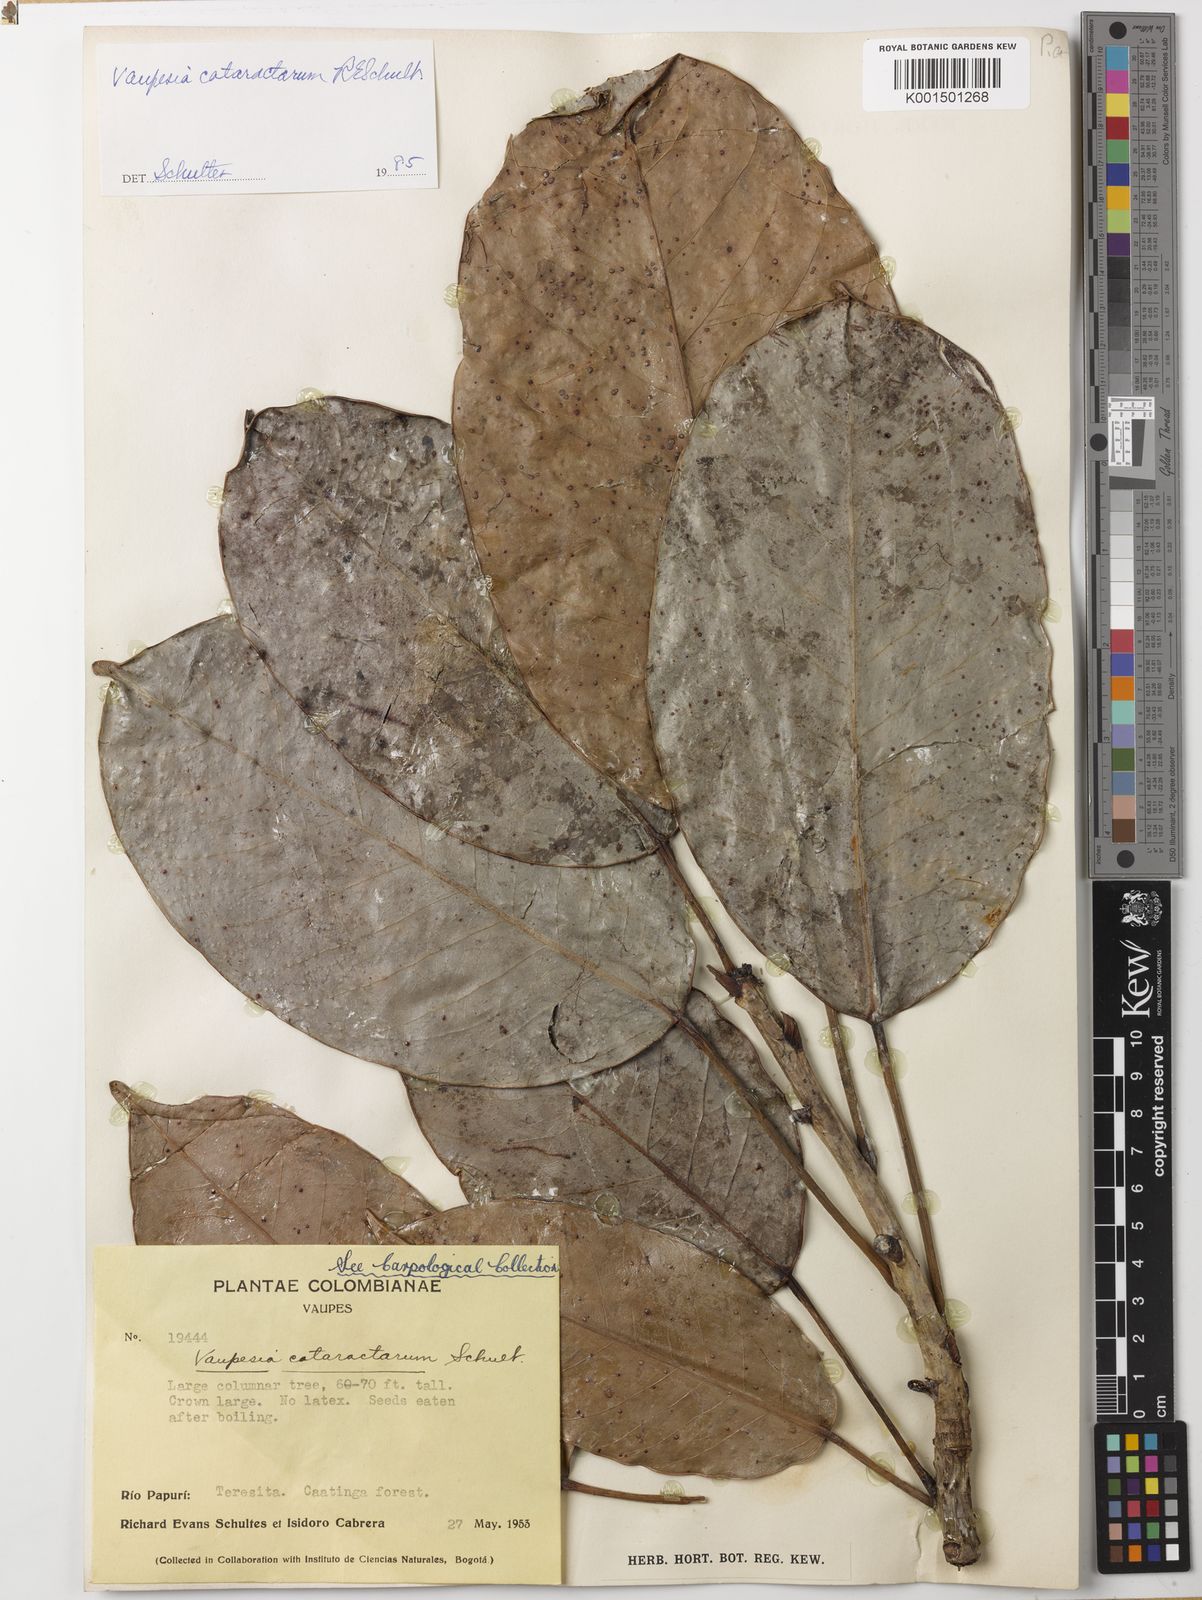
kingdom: Plantae
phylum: Tracheophyta
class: Magnoliopsida
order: Malpighiales
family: Euphorbiaceae
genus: Vaupesia
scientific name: Vaupesia cataractarum
